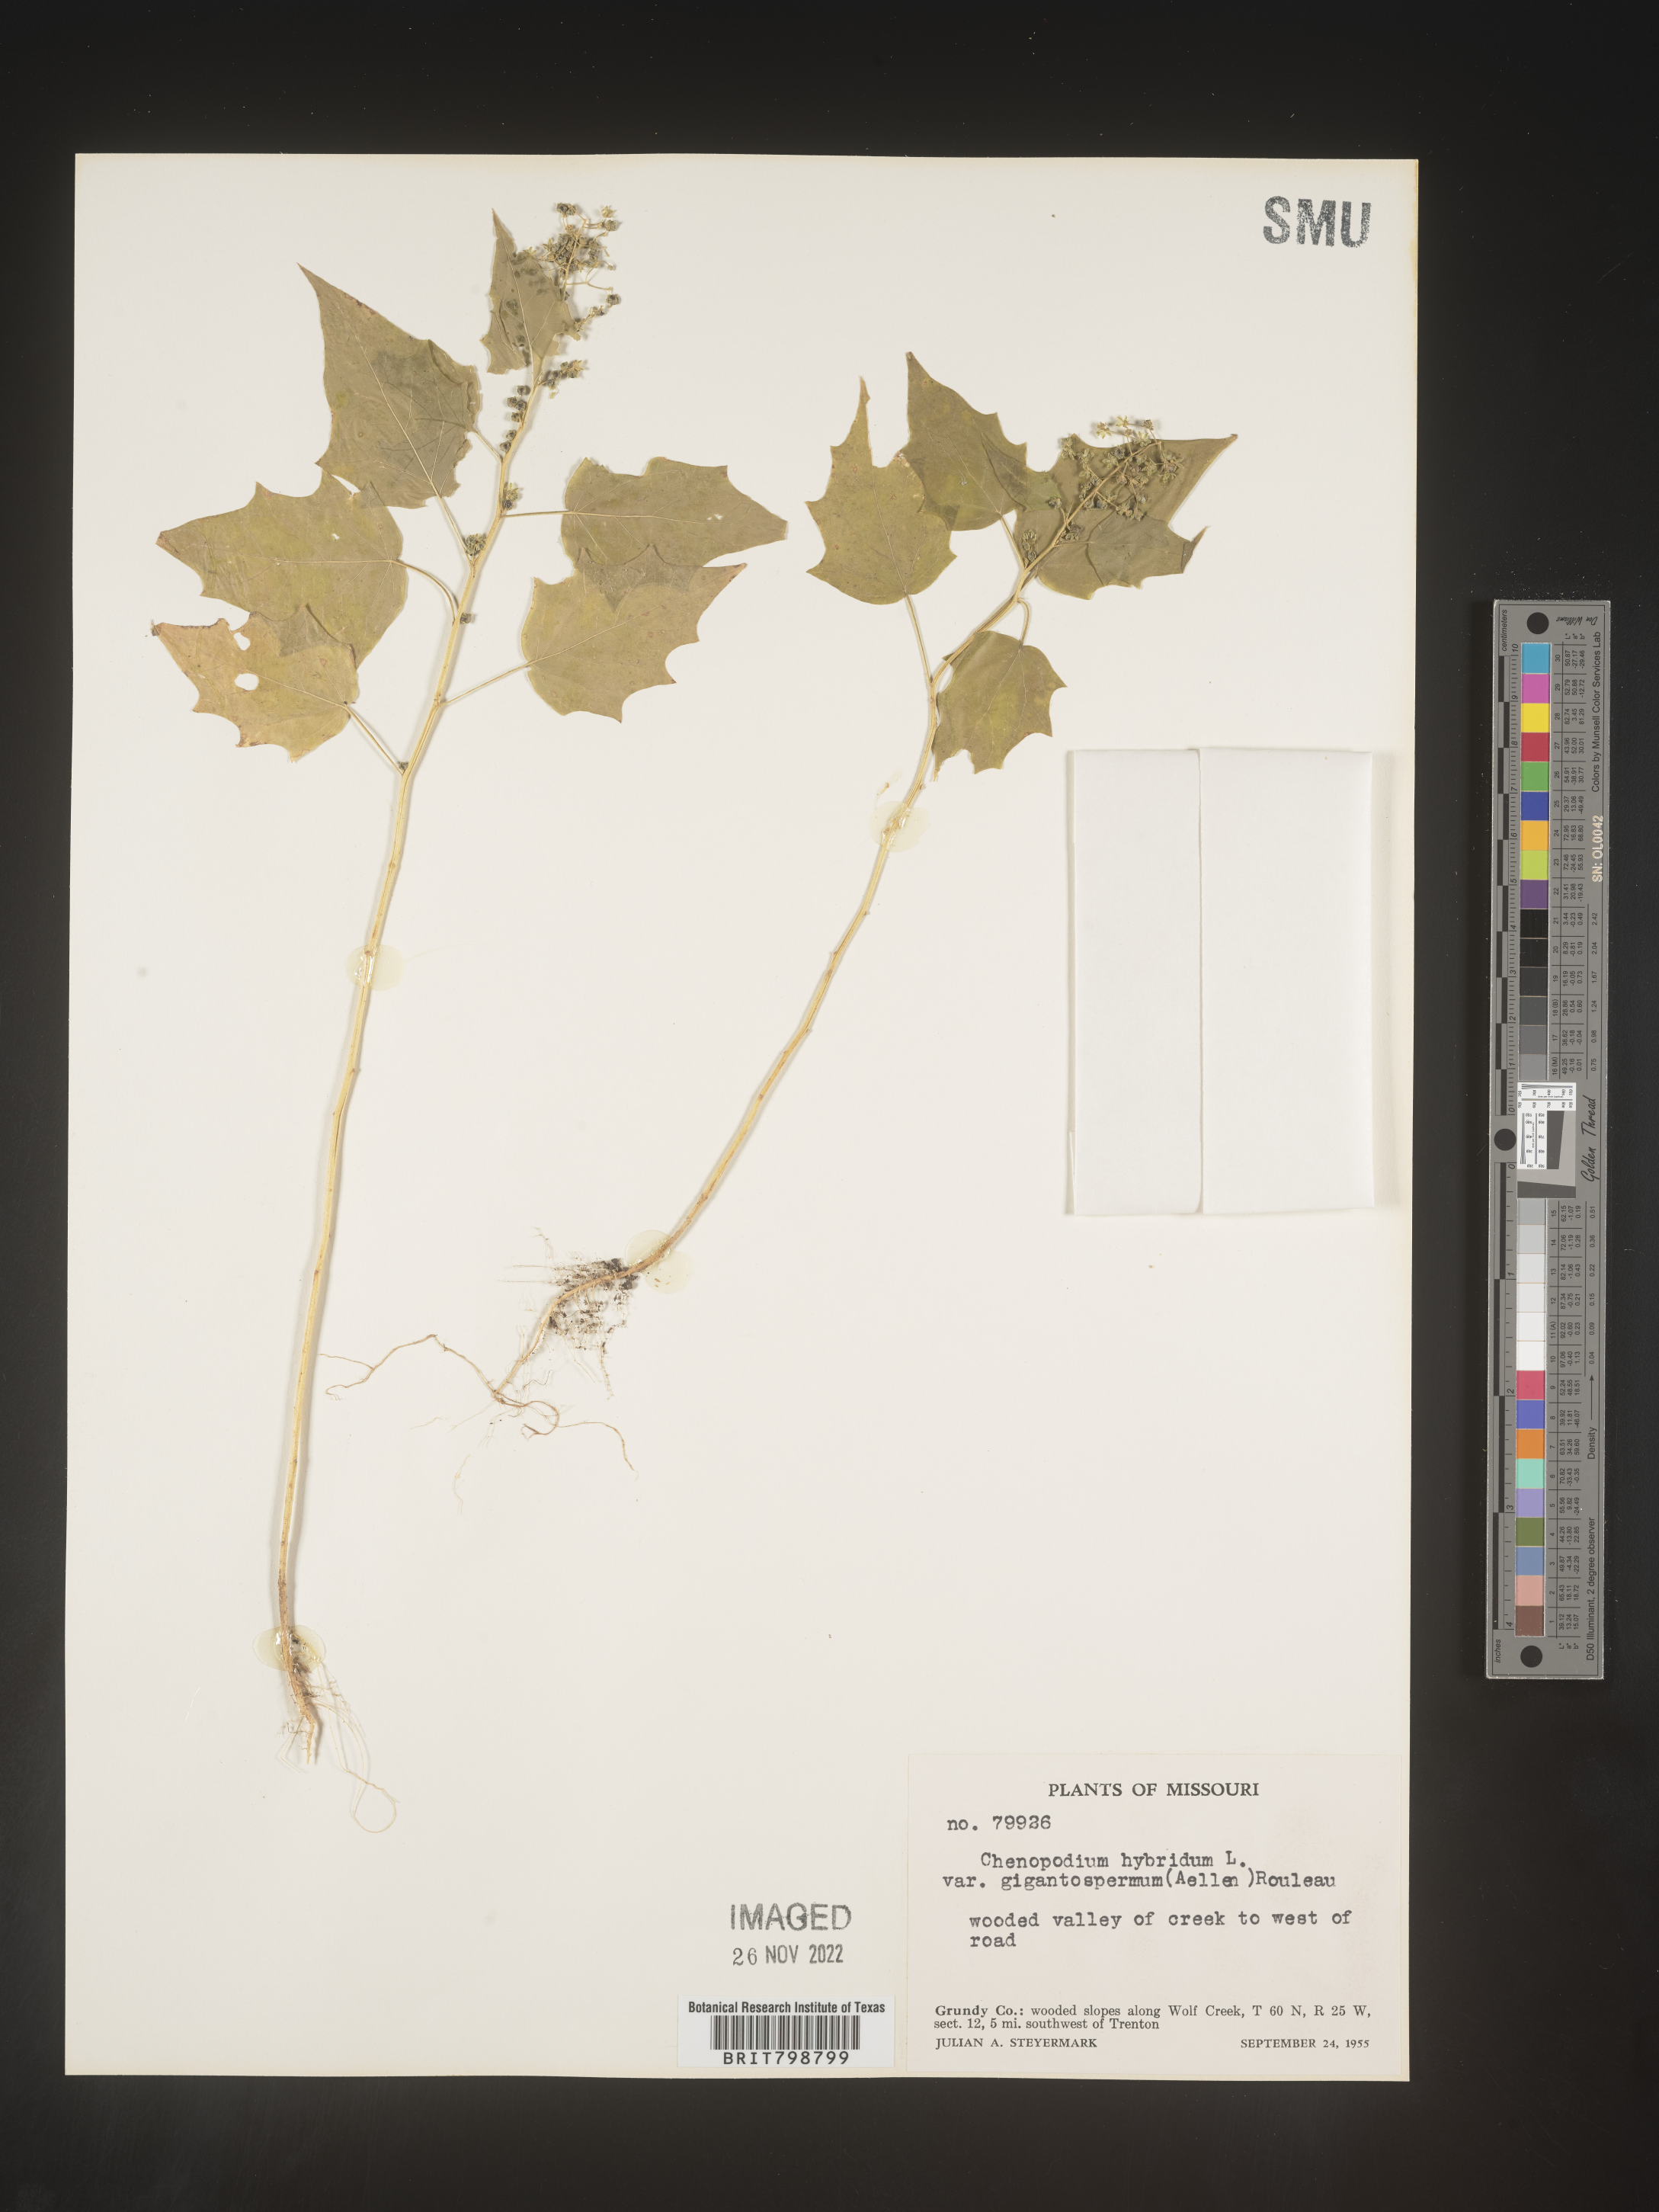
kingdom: Plantae
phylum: Tracheophyta
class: Magnoliopsida
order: Caryophyllales
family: Amaranthaceae
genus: Chenopodiastrum
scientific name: Chenopodiastrum simplex
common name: Large-seed goosefoot
